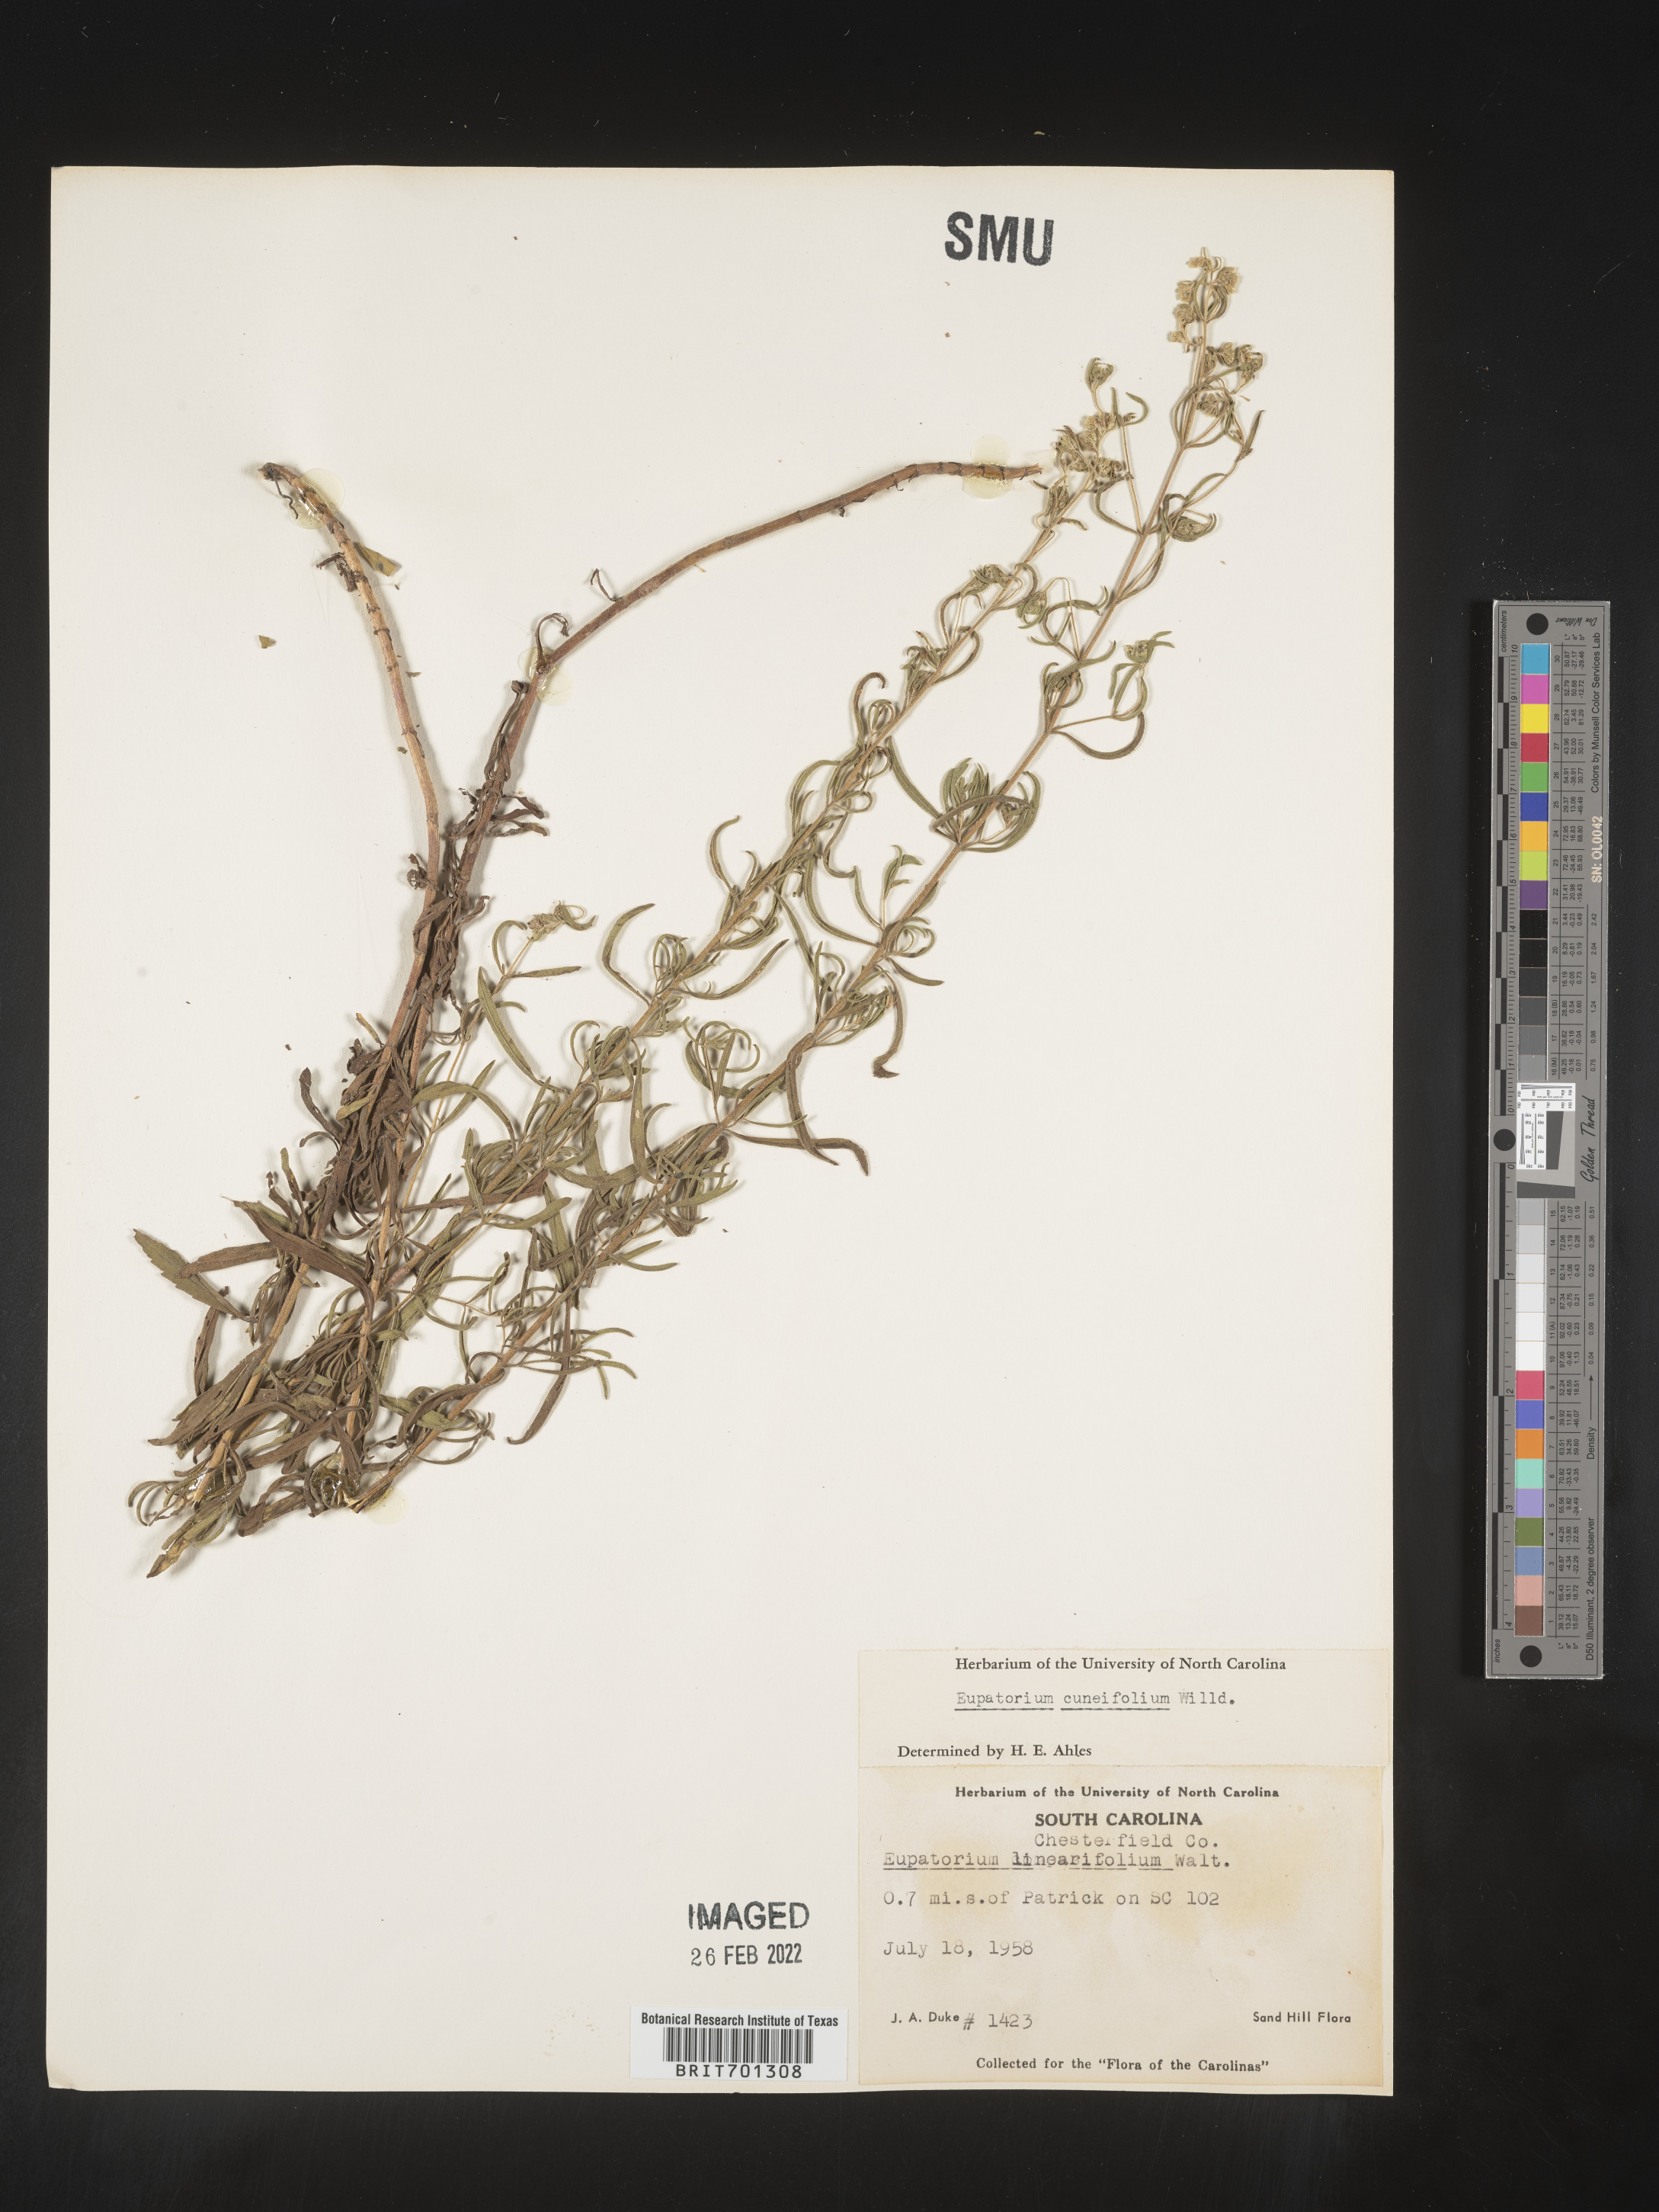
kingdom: Plantae
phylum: Tracheophyta
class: Magnoliopsida
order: Asterales
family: Asteraceae
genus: Eupatorium
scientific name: Eupatorium linearifolium
